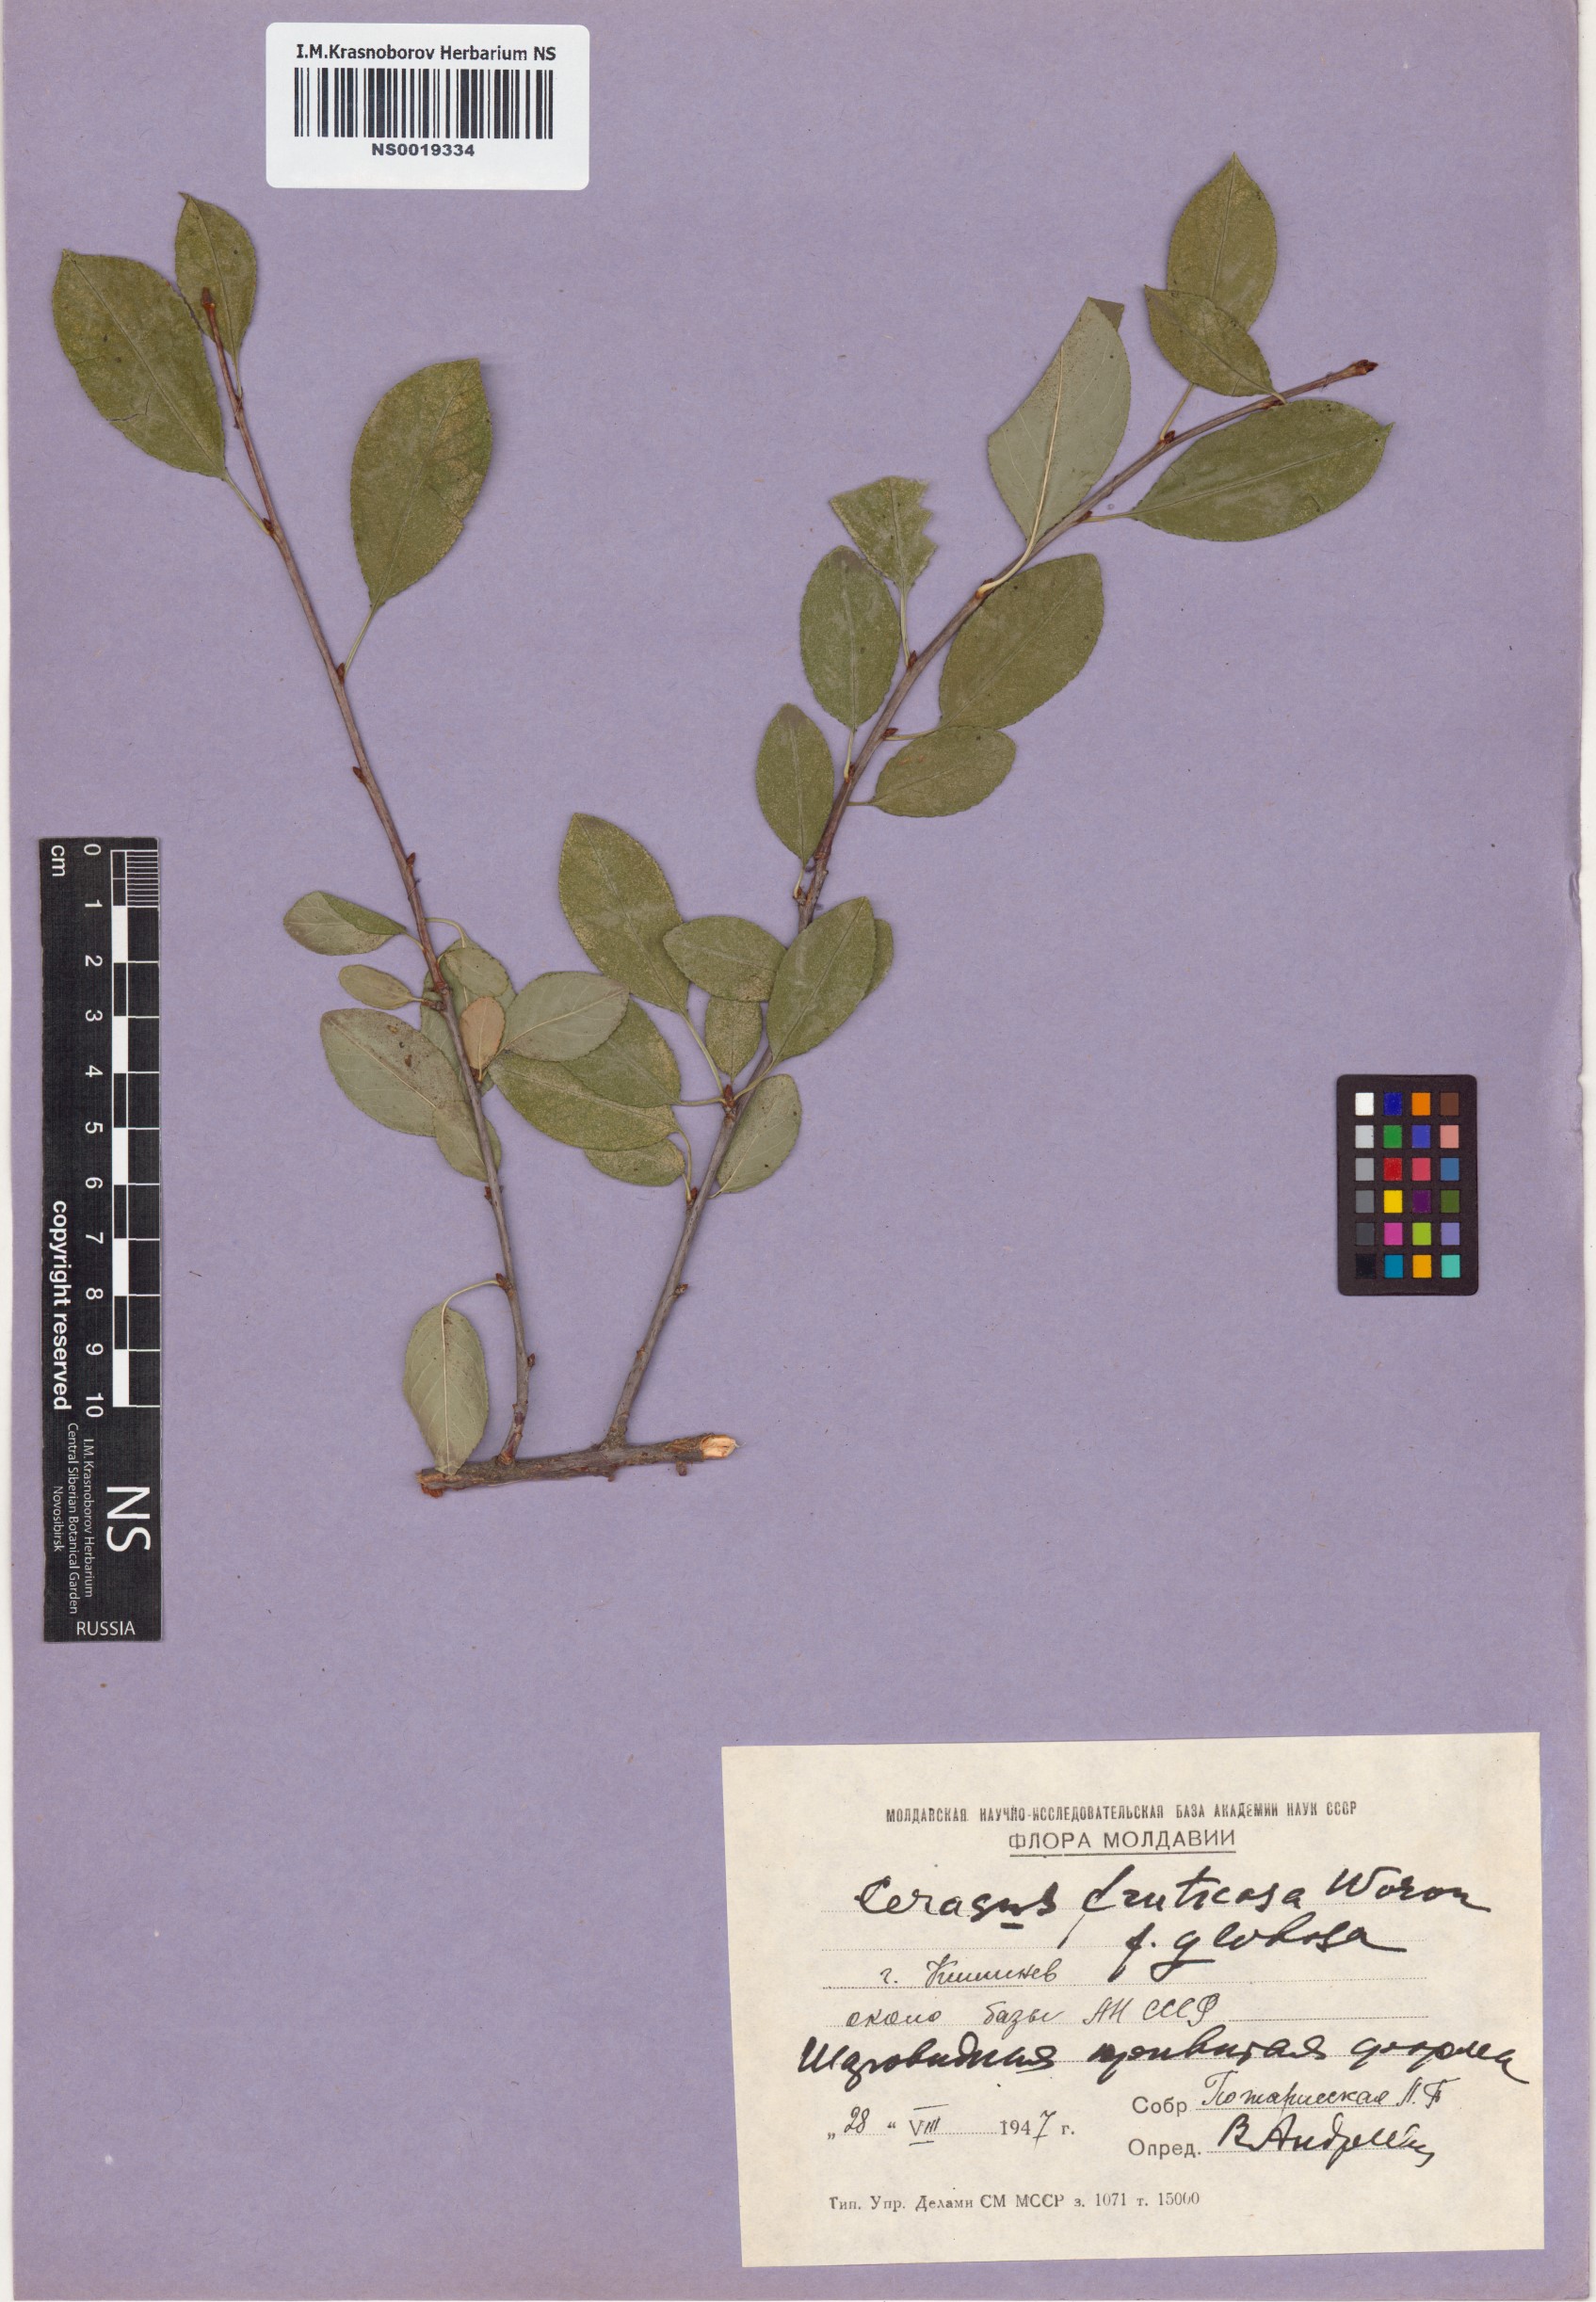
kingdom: Plantae
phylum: Tracheophyta
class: Magnoliopsida
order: Rosales
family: Rosaceae
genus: Prunus
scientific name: Prunus fruticosa
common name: European dwarf cherry
